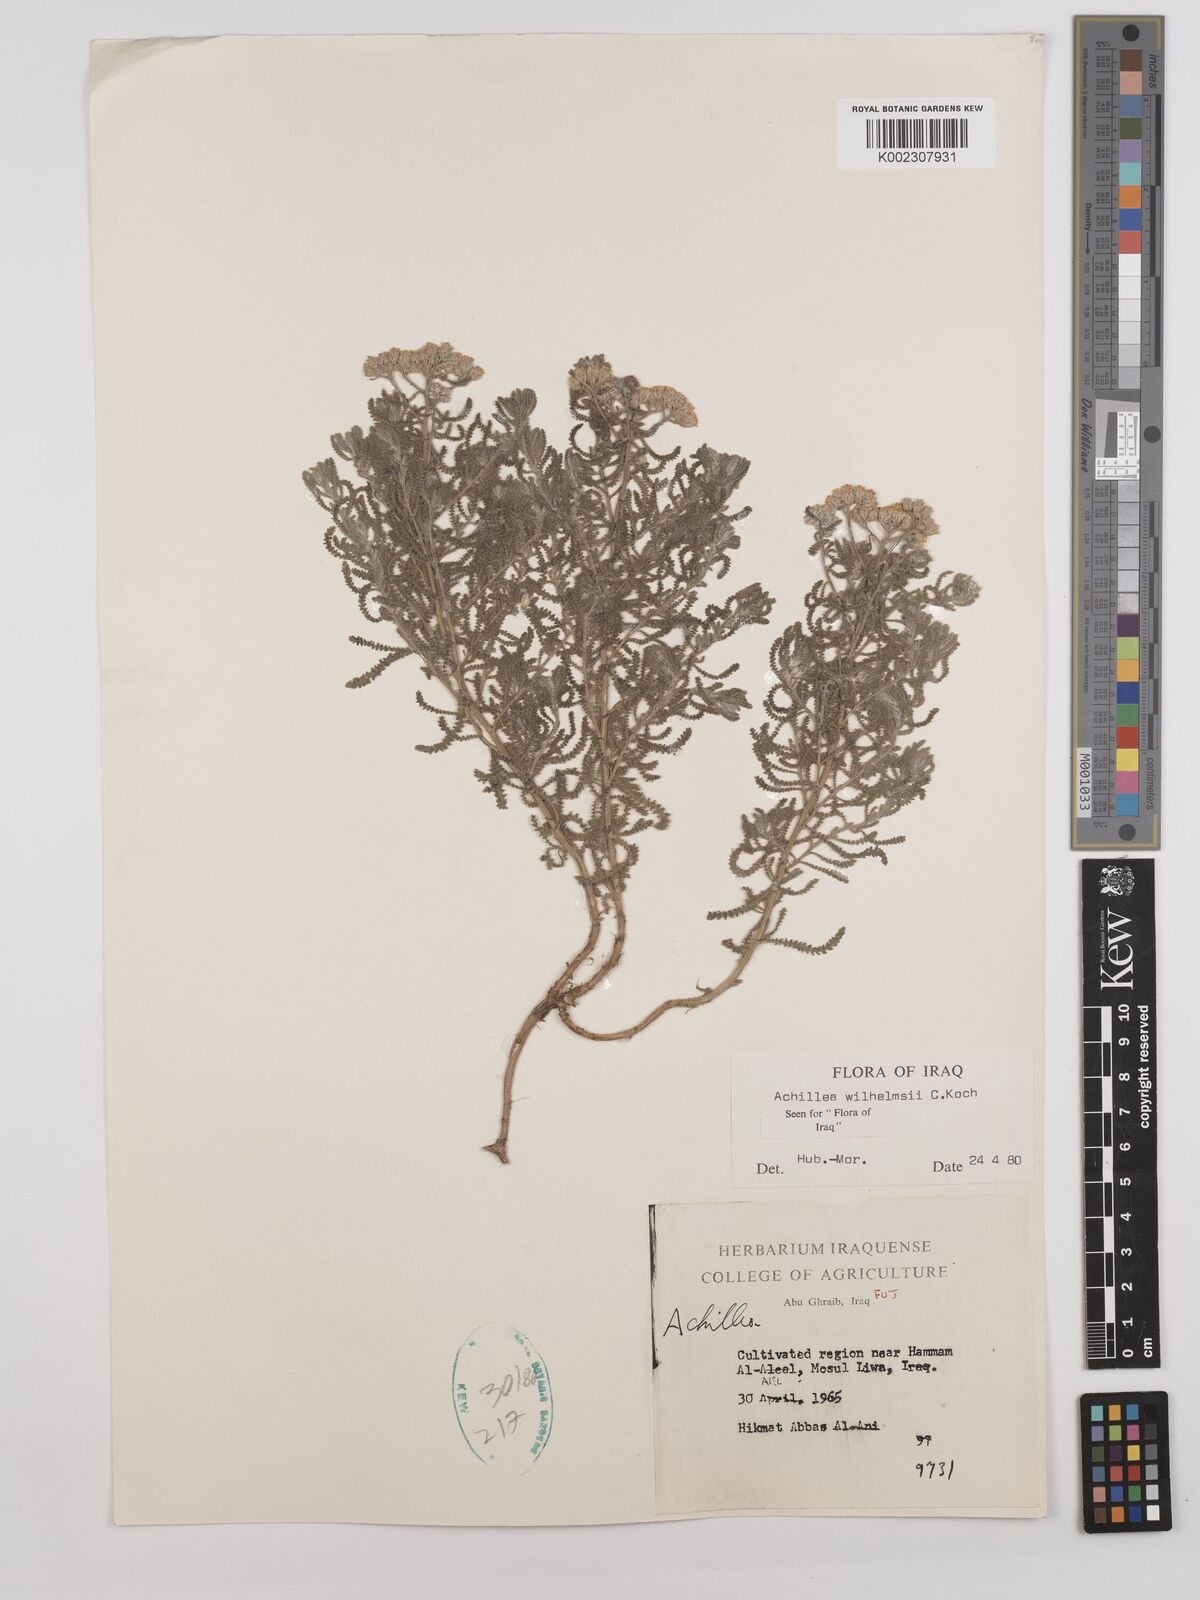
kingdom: Plantae
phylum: Tracheophyta
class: Magnoliopsida
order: Asterales
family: Asteraceae
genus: Achillea
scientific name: Achillea wilhelmsii
